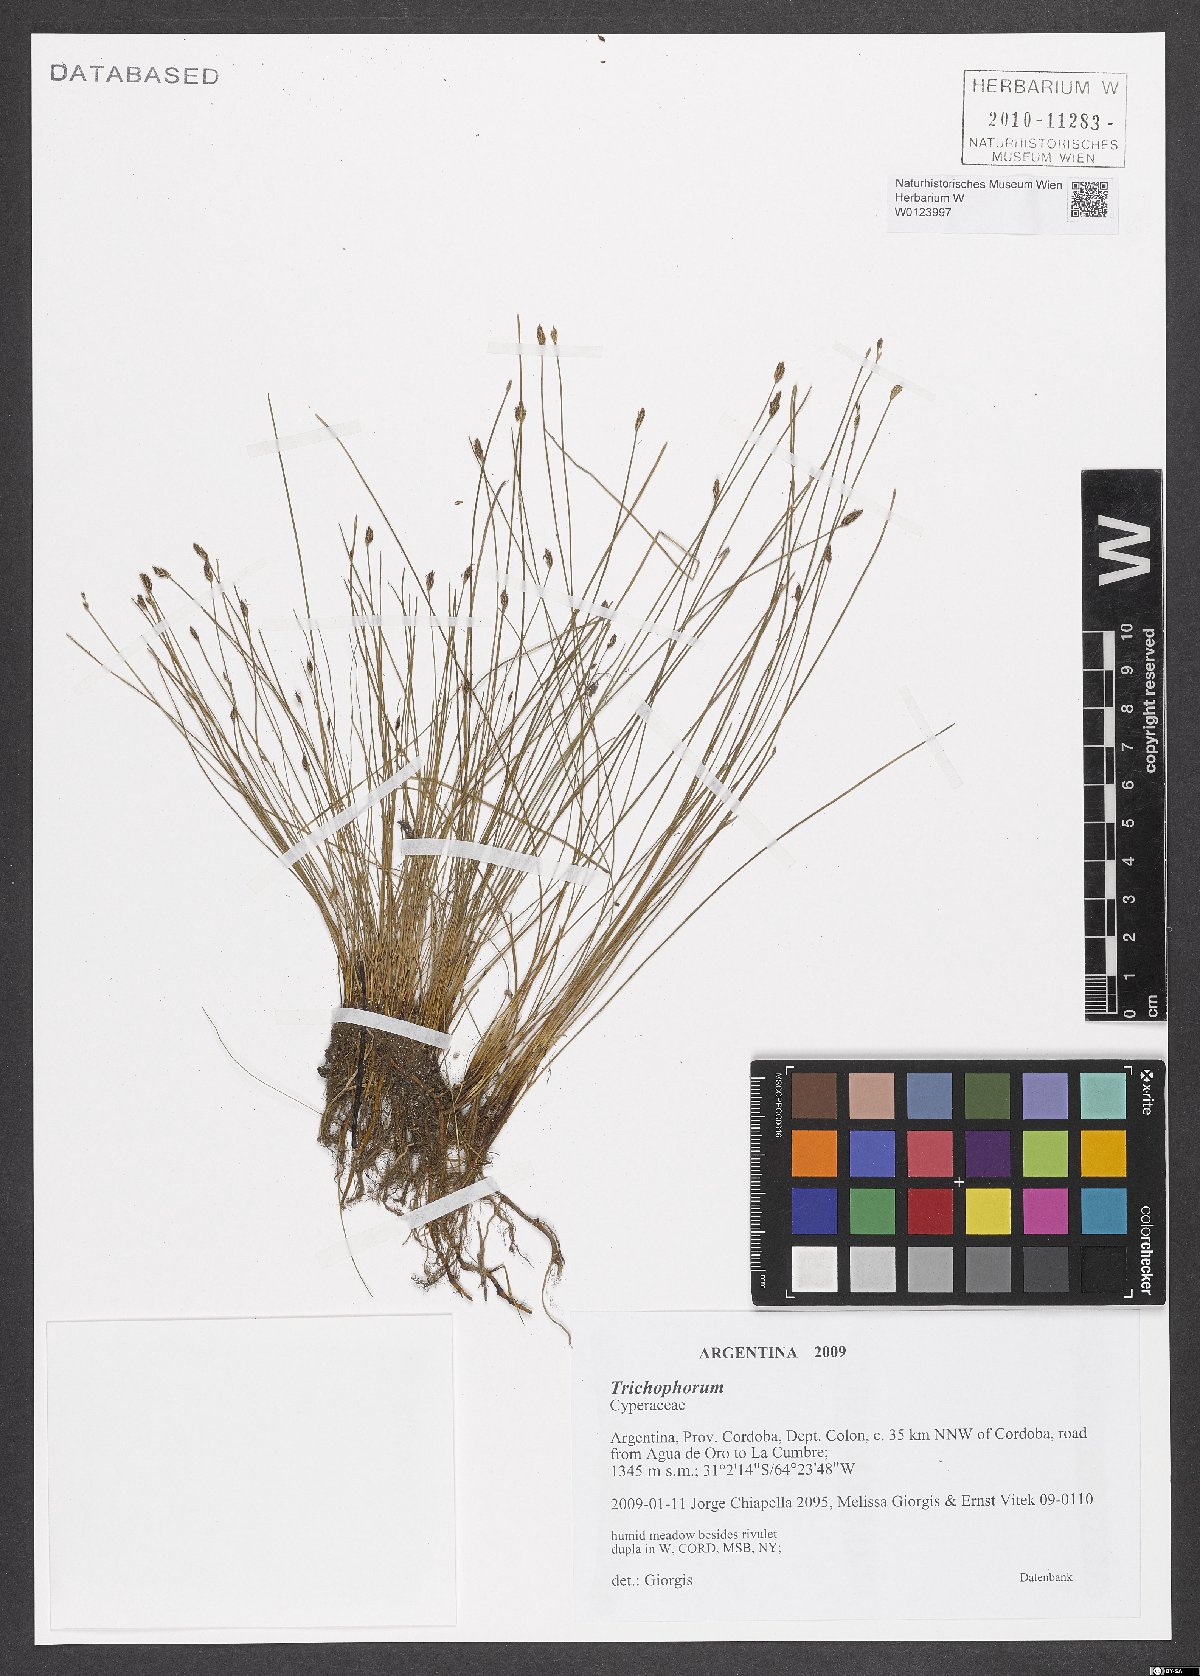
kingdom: Plantae
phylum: Tracheophyta
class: Liliopsida
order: Poales
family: Cyperaceae
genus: Trichophorum
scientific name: Trichophorum
